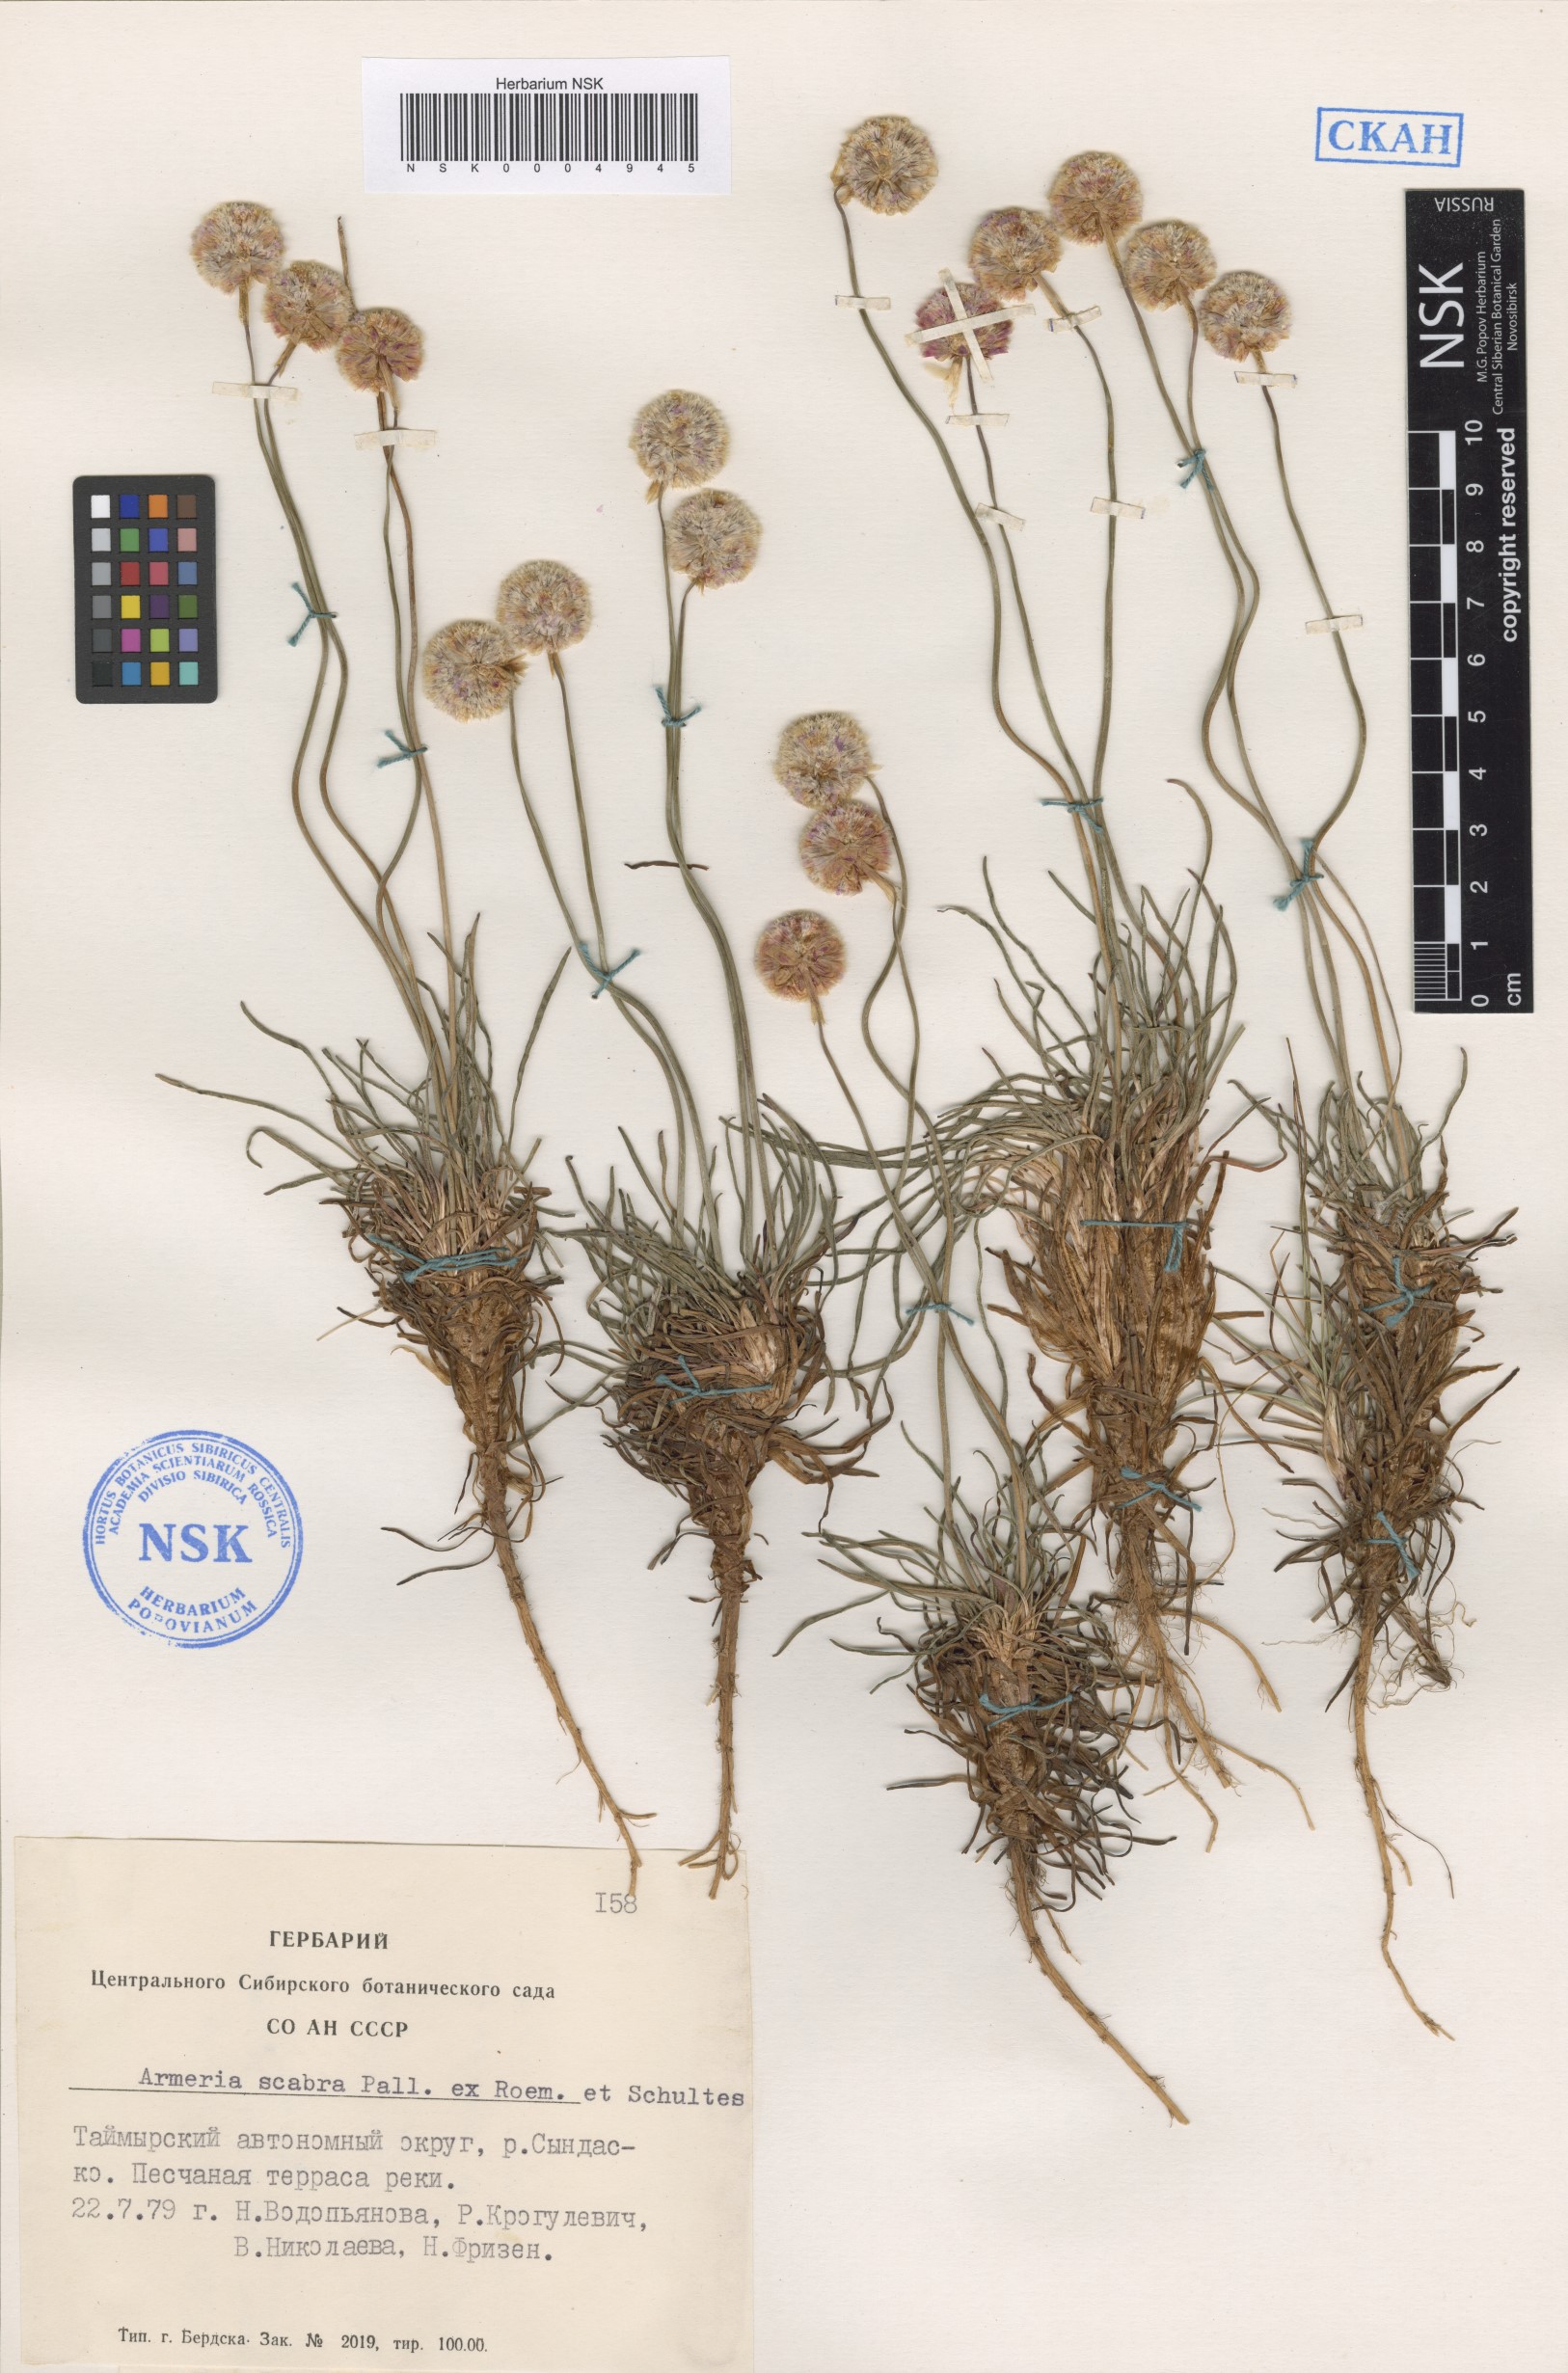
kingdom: Plantae
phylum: Tracheophyta
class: Magnoliopsida
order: Caryophyllales
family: Plumbaginaceae
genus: Armeria
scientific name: Armeria maritima
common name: Thrift
